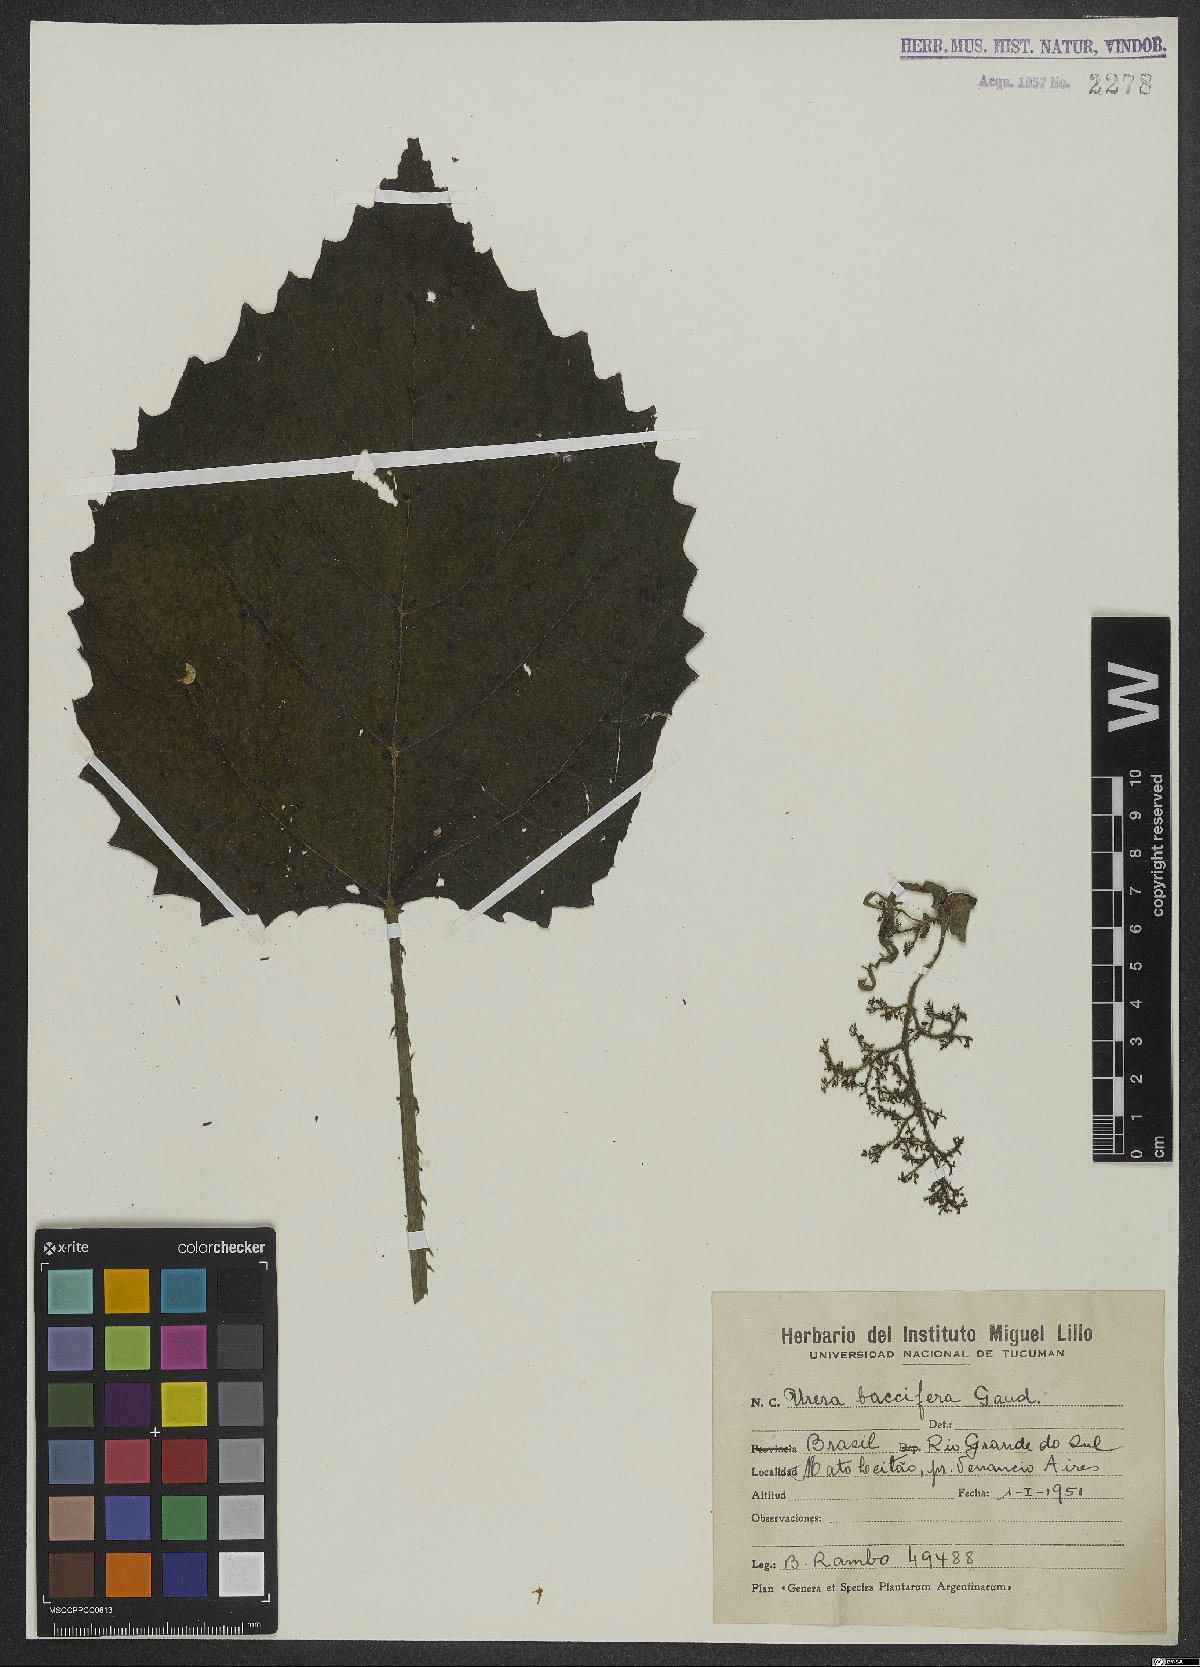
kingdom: Plantae
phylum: Tracheophyta
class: Magnoliopsida
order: Rosales
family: Urticaceae
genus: Urera
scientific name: Urera baccifera
